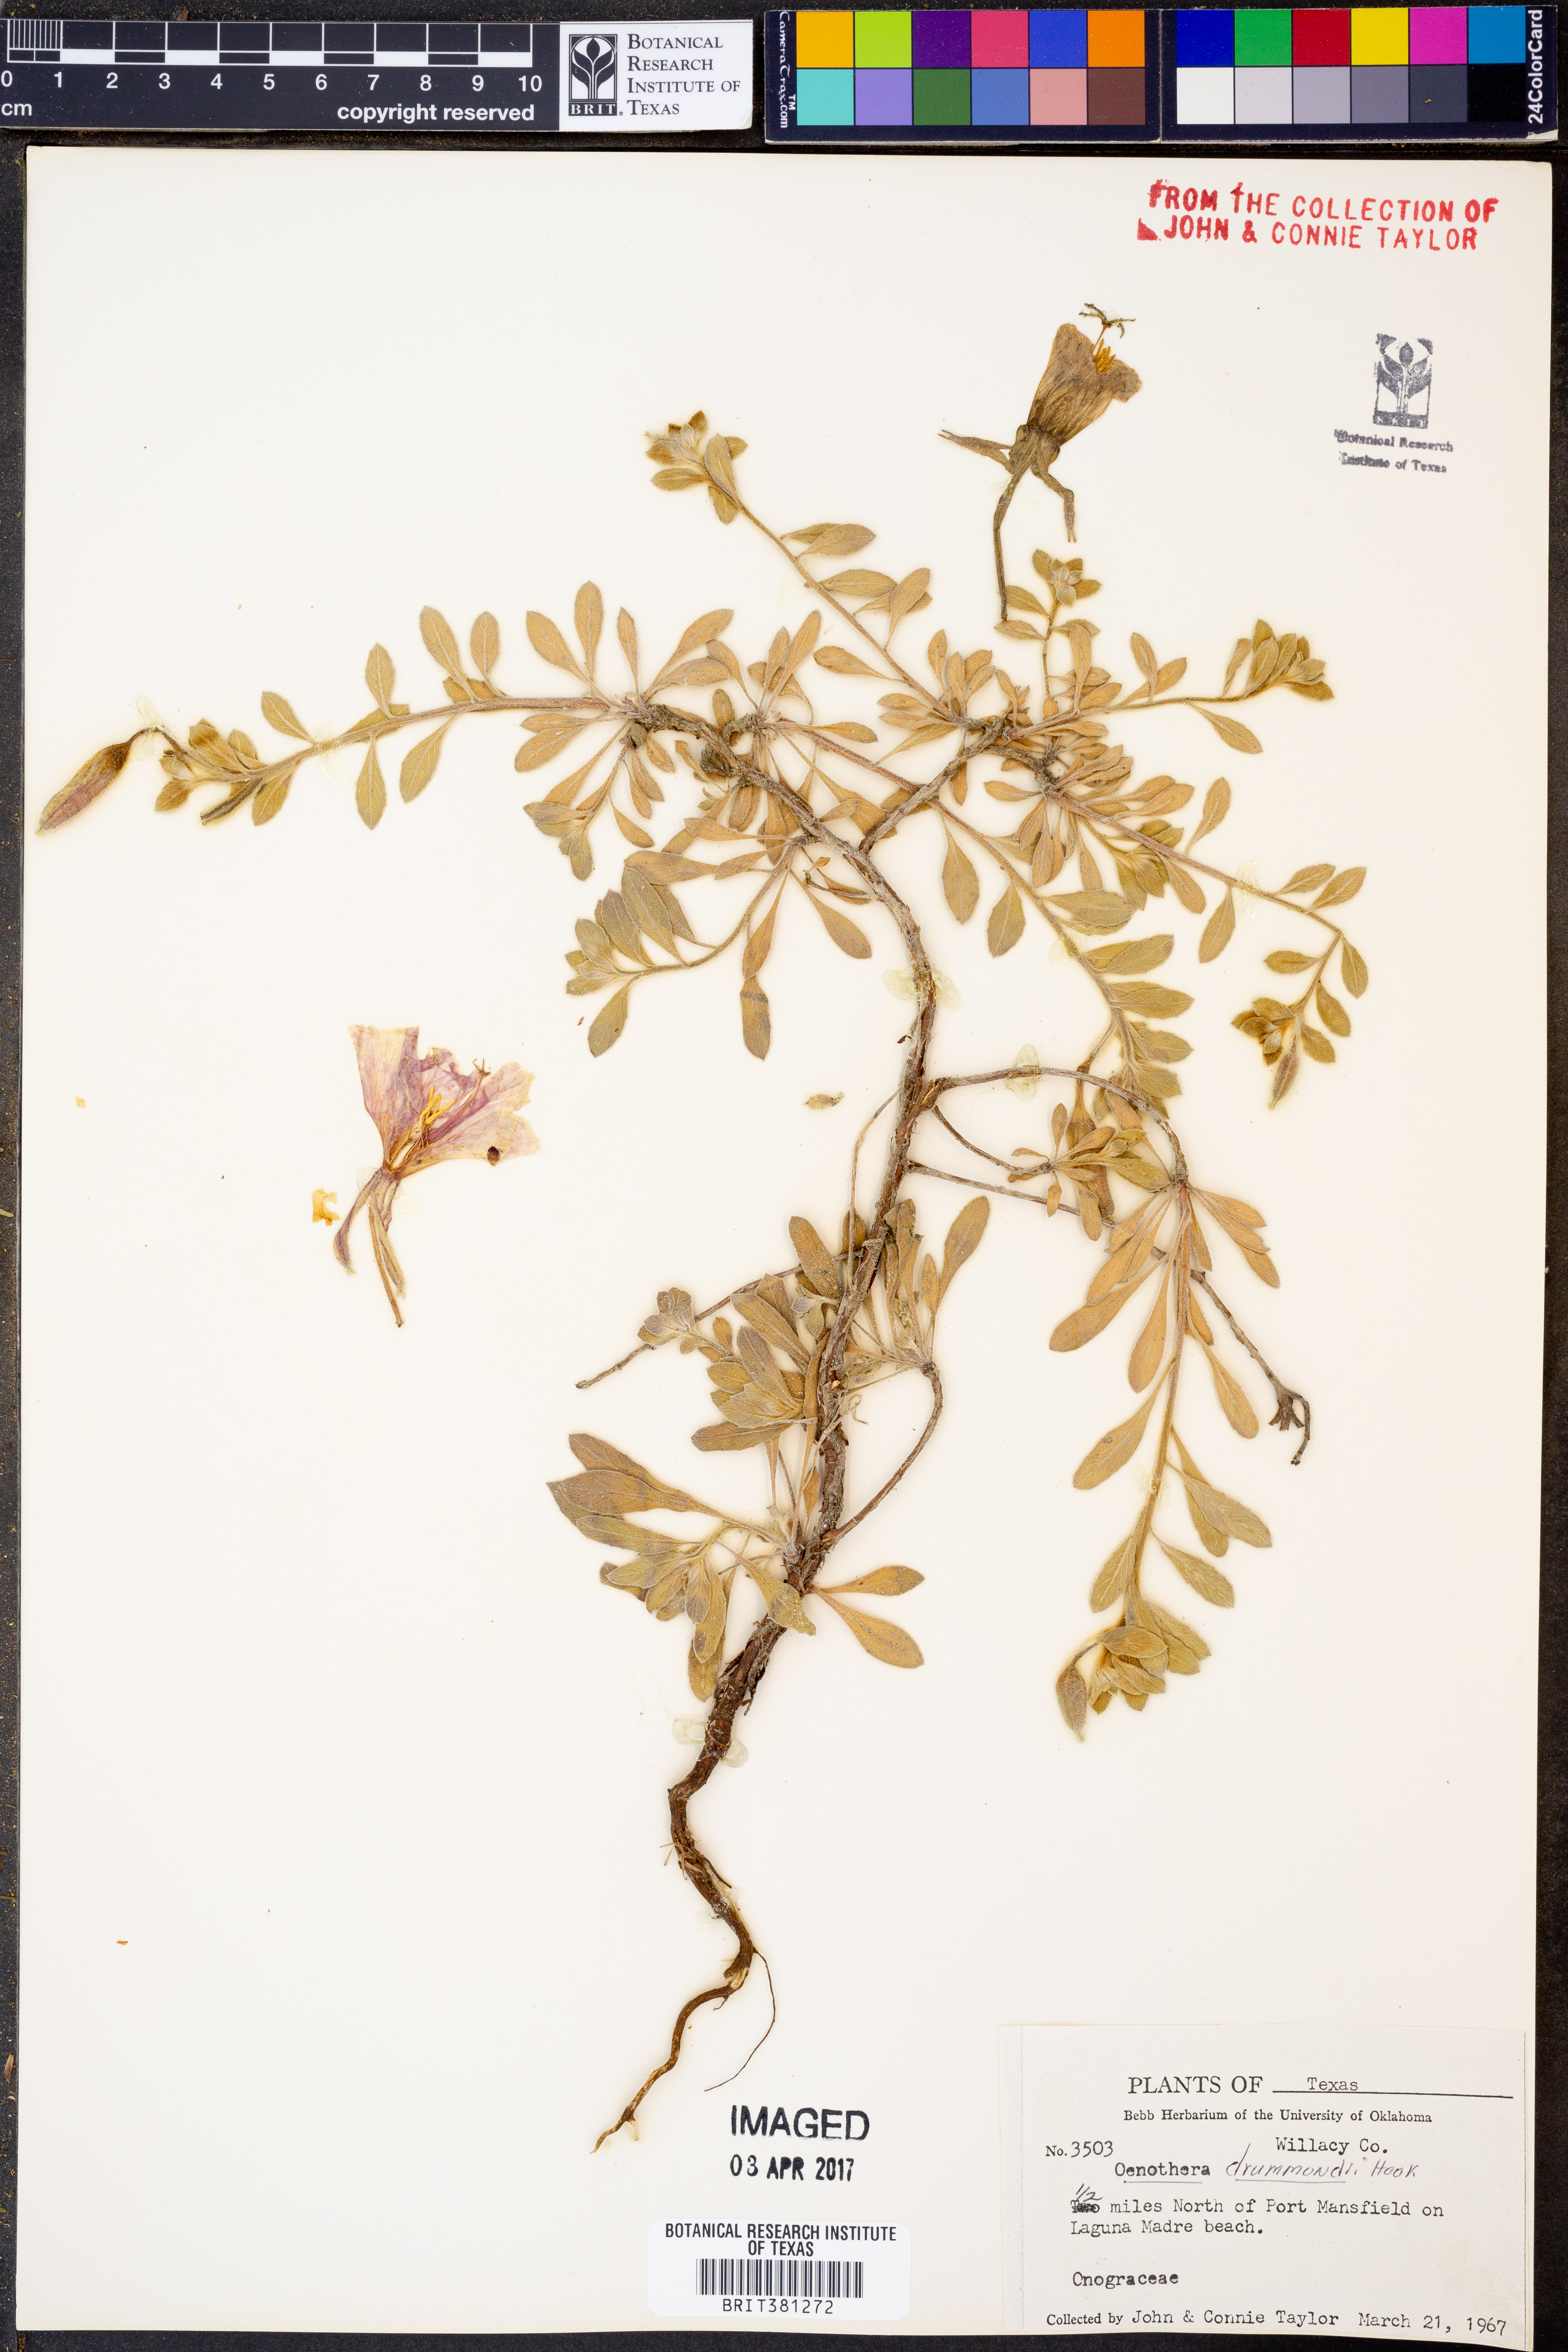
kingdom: Plantae
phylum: Tracheophyta
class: Magnoliopsida
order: Myrtales
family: Onagraceae
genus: Oenothera
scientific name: Oenothera drummondii
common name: Beach evening-primrose
